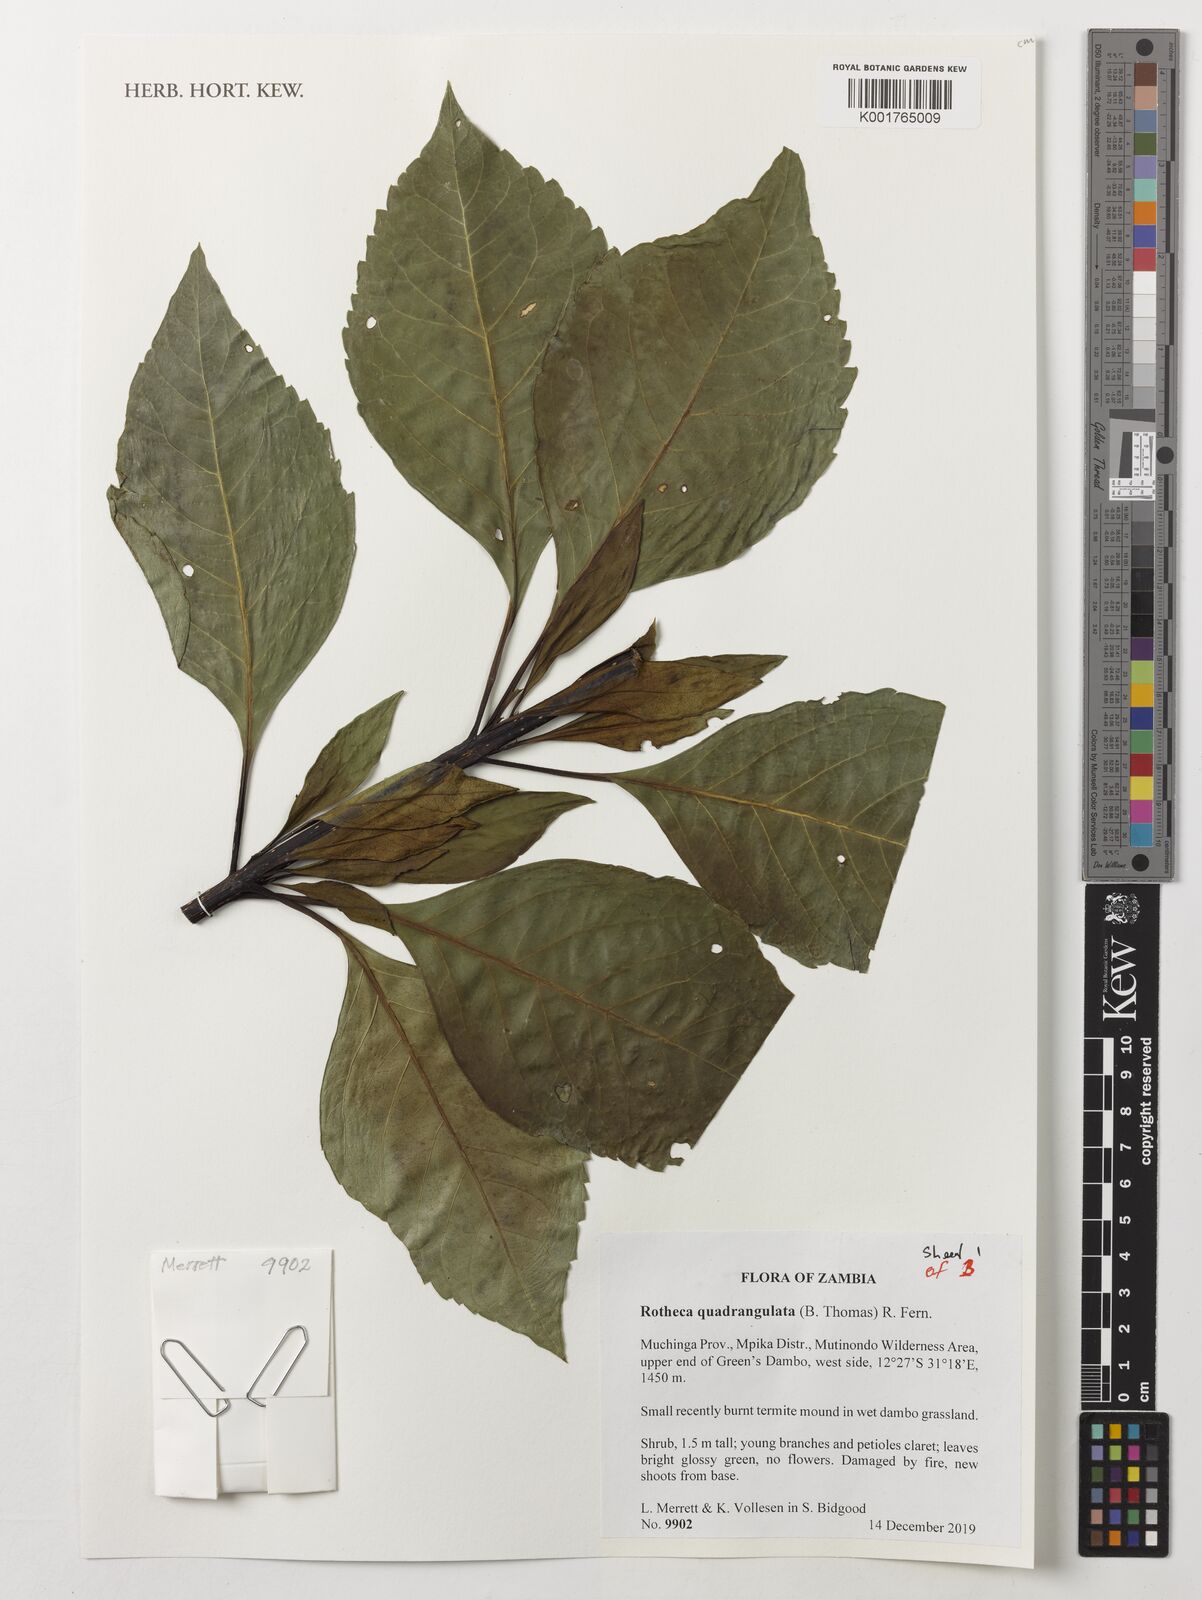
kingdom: Plantae
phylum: Tracheophyta
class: Magnoliopsida
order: Lamiales
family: Lamiaceae
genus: Rotheca
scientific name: Rotheca quadrangulata
